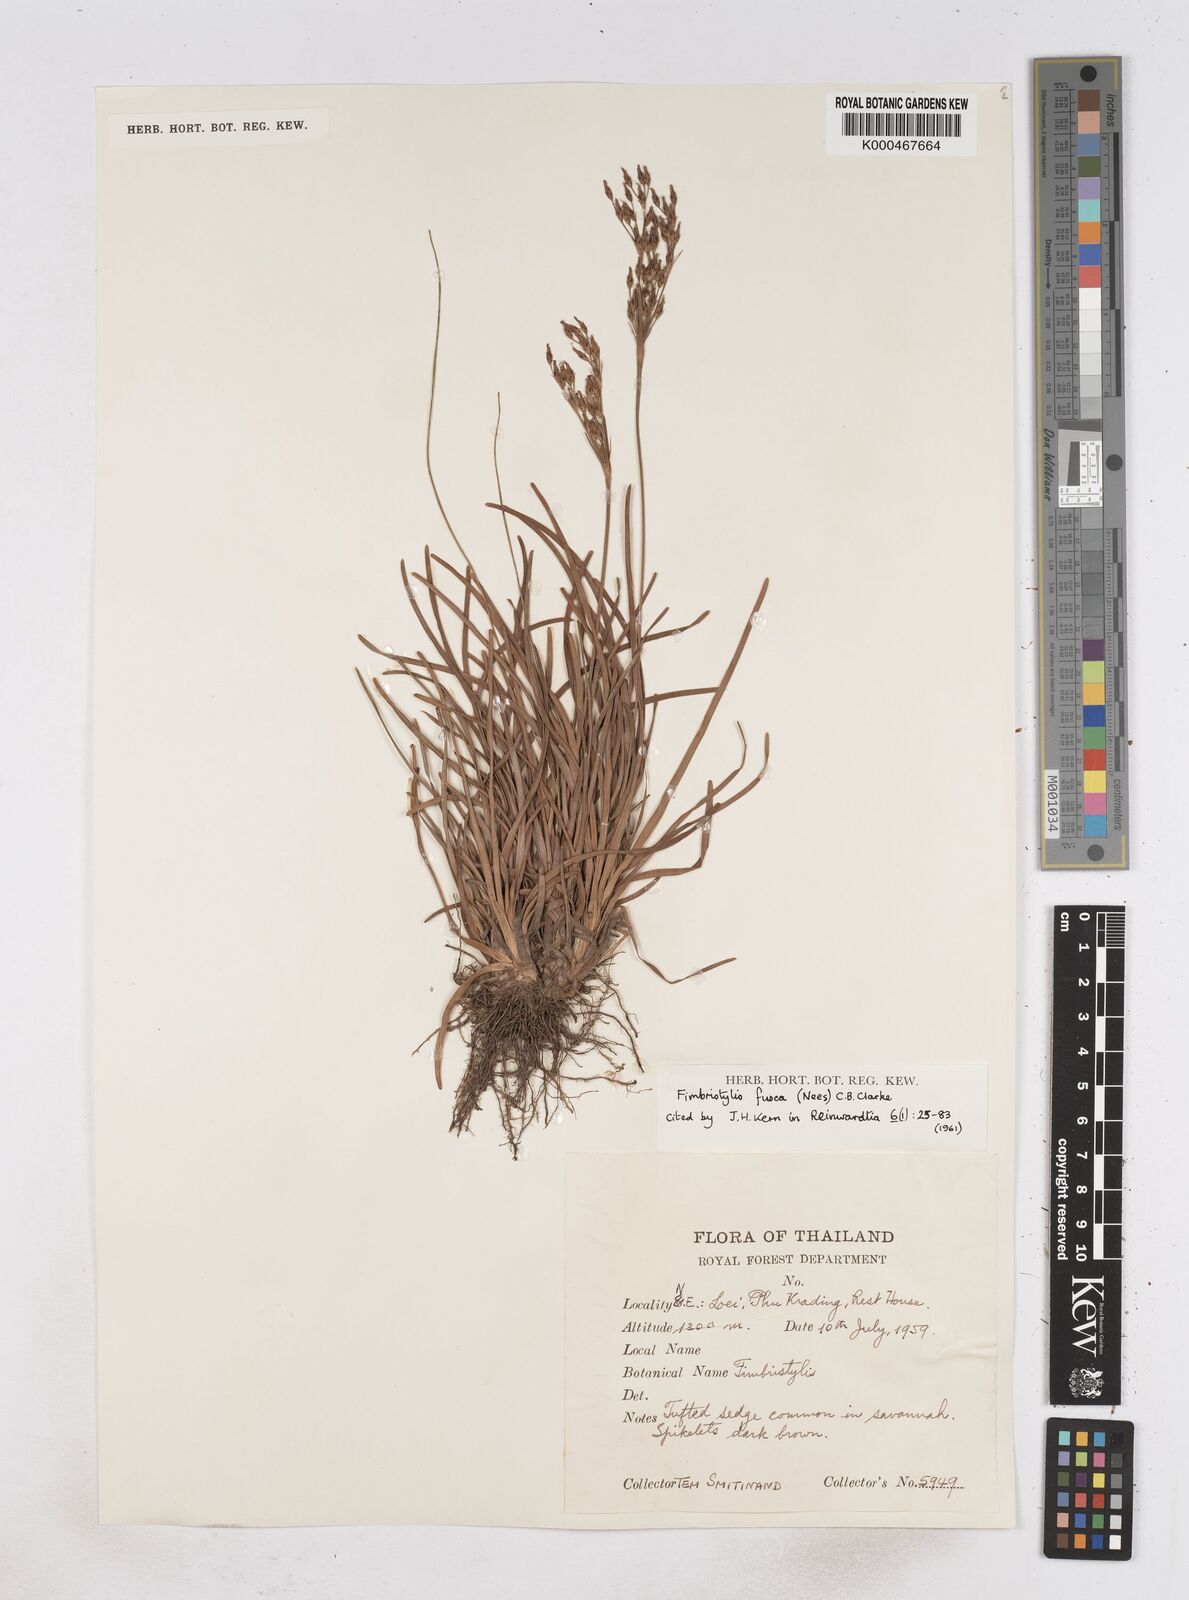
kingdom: Plantae
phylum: Tracheophyta
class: Liliopsida
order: Poales
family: Cyperaceae
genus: Fimbristylis
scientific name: Fimbristylis fusca
